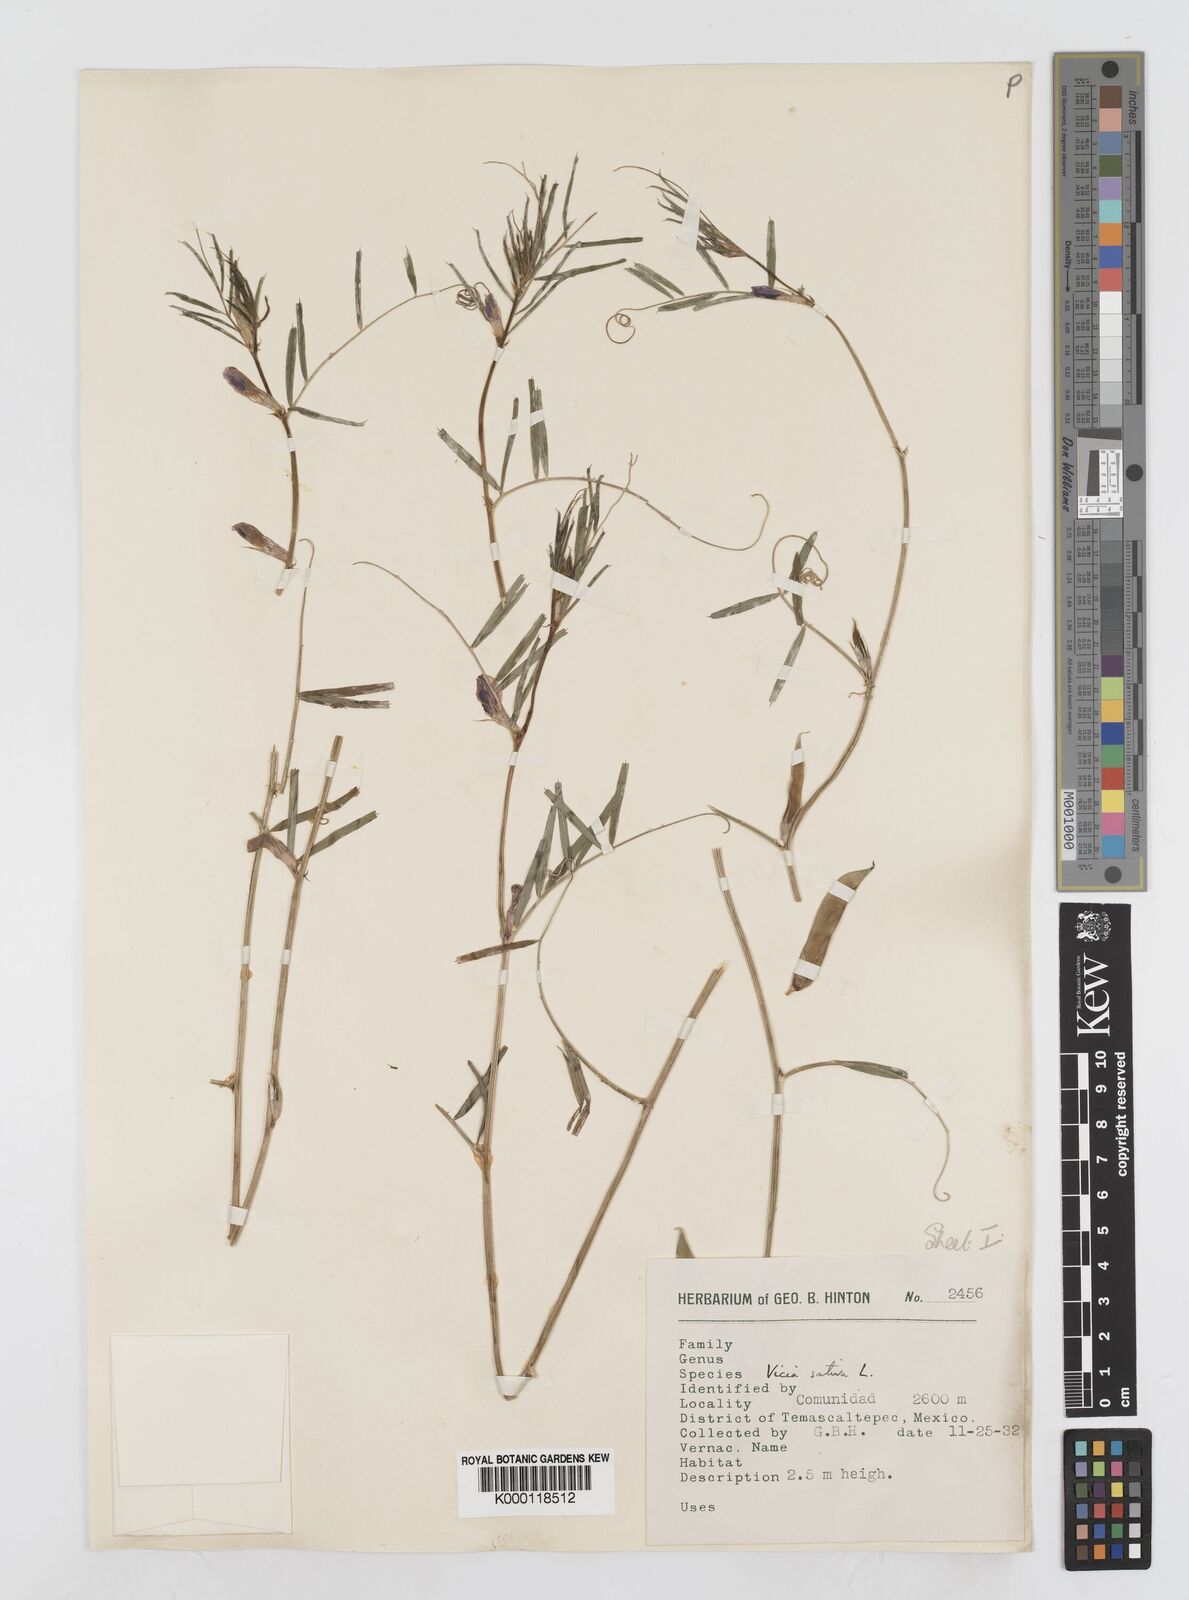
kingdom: Plantae
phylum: Tracheophyta
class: Magnoliopsida
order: Fabales
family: Fabaceae
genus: Vicia
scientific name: Vicia sativa
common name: Garden vetch
